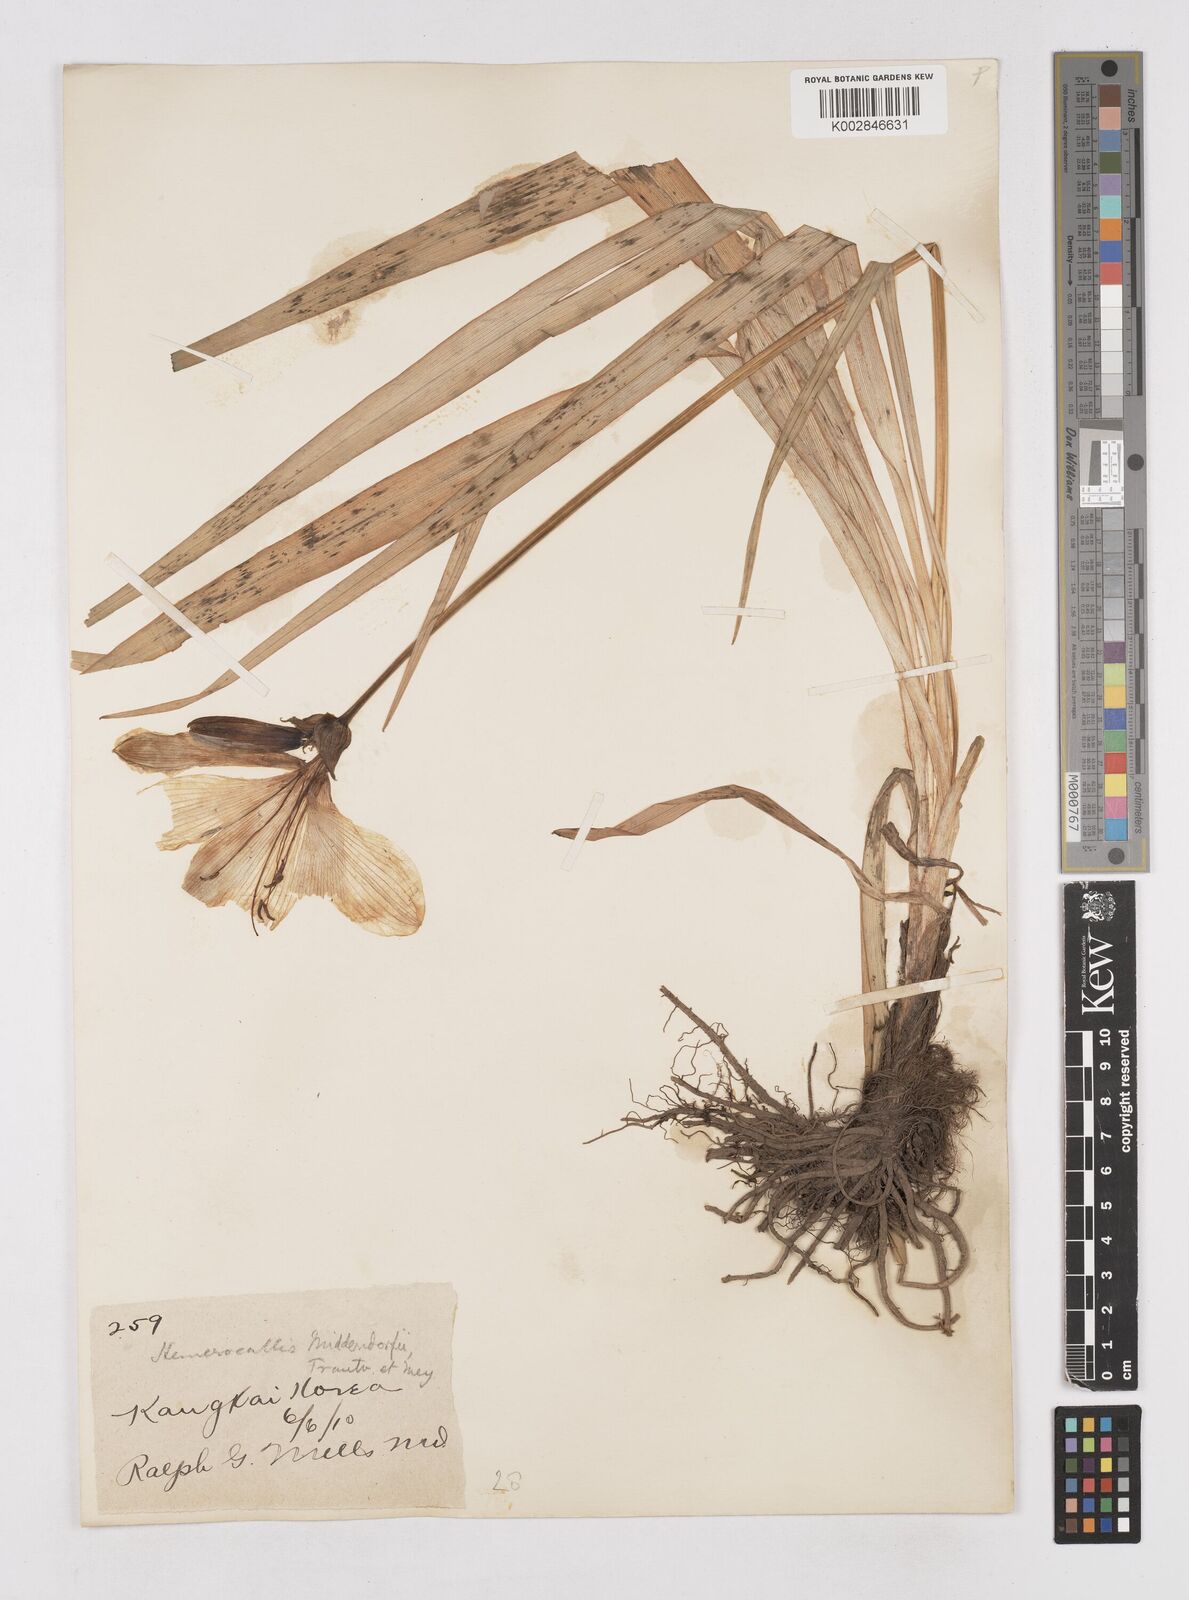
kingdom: Plantae
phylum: Tracheophyta
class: Liliopsida
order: Asparagales
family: Asphodelaceae
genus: Hemerocallis
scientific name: Hemerocallis middendorffii
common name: Amur day-lily
